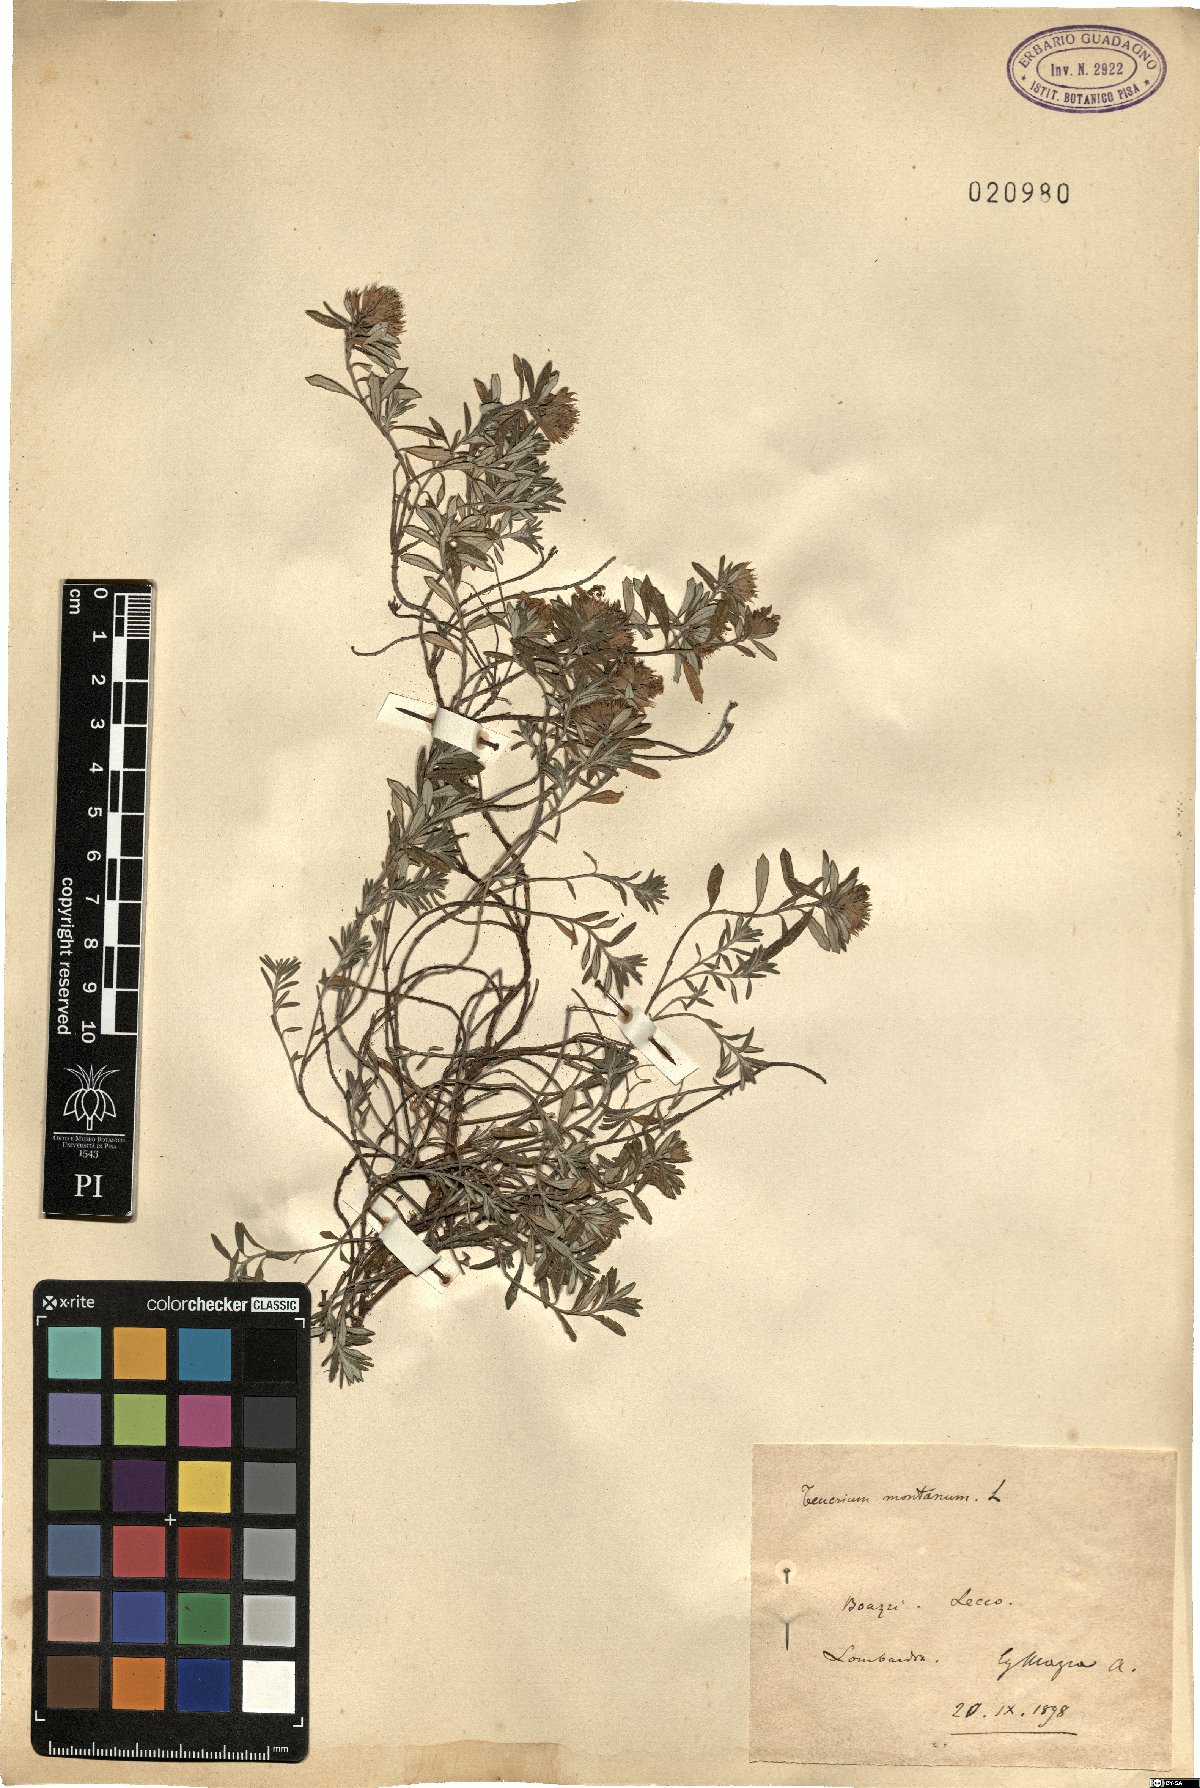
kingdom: Plantae
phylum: Tracheophyta
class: Magnoliopsida
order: Lamiales
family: Lamiaceae
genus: Teucrium
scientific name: Teucrium montanum
